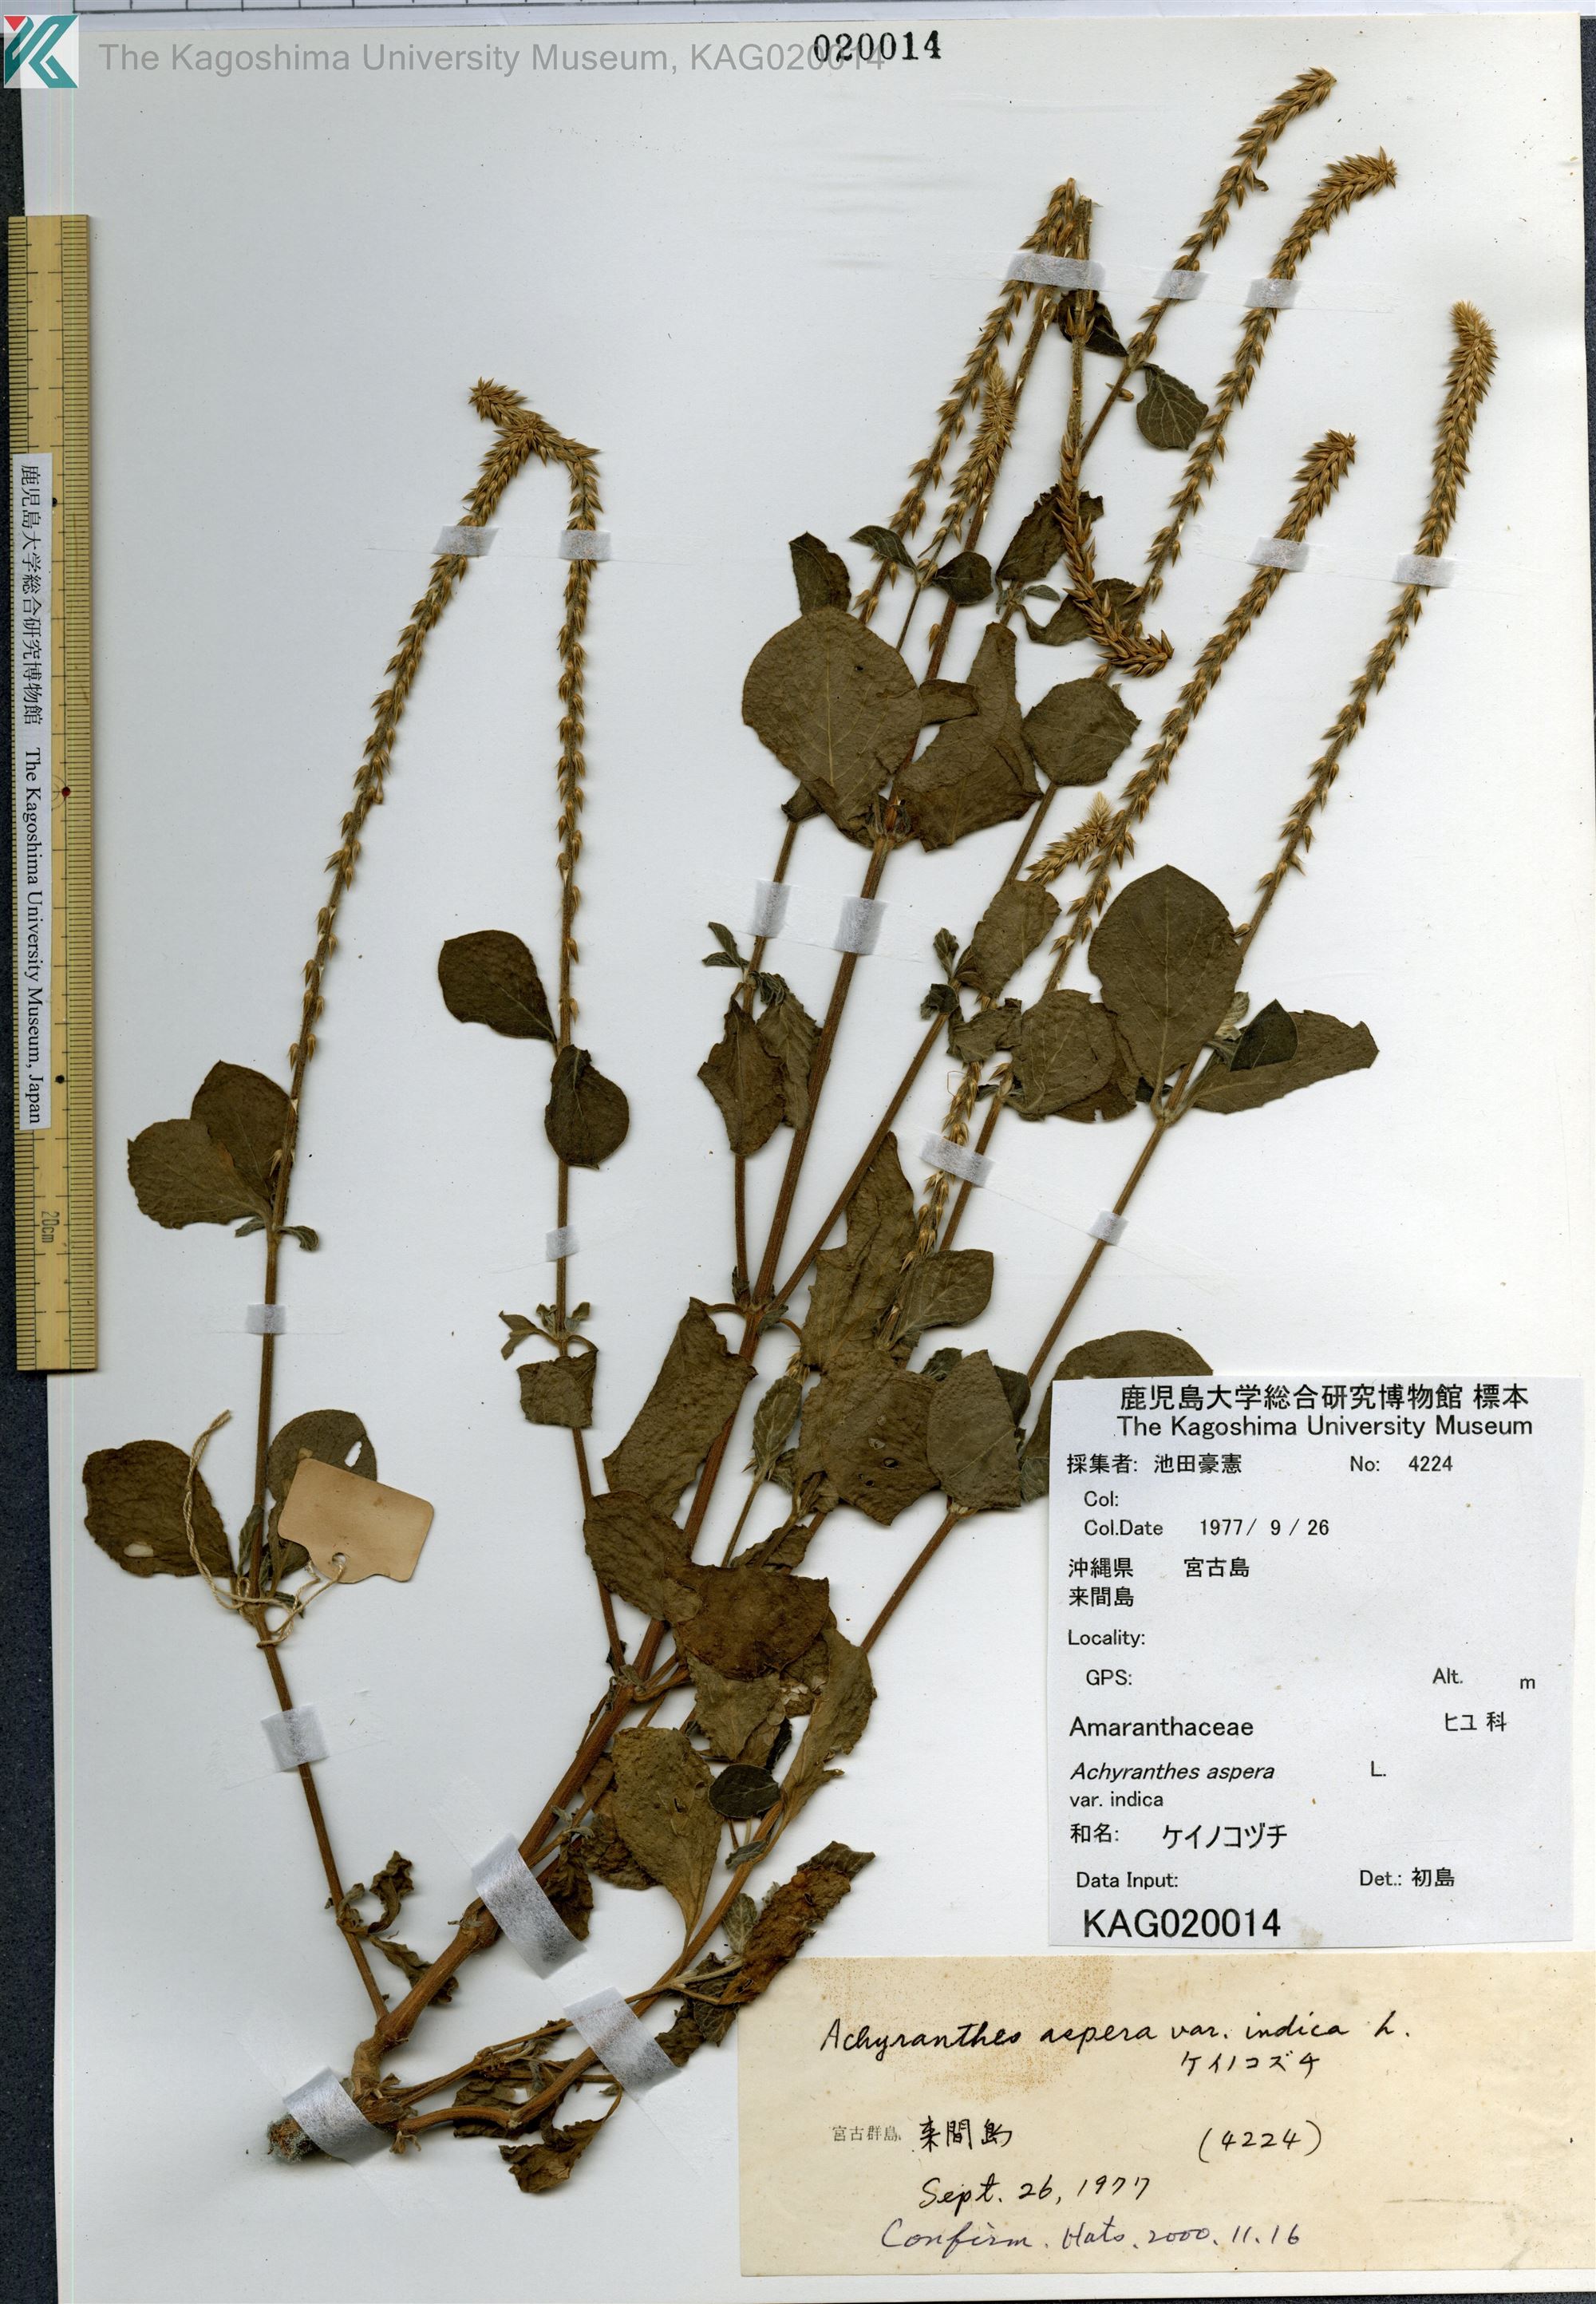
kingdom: Plantae
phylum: Tracheophyta
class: Magnoliopsida
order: Caryophyllales
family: Amaranthaceae
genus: Achyranthes
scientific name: Achyranthes aspera
